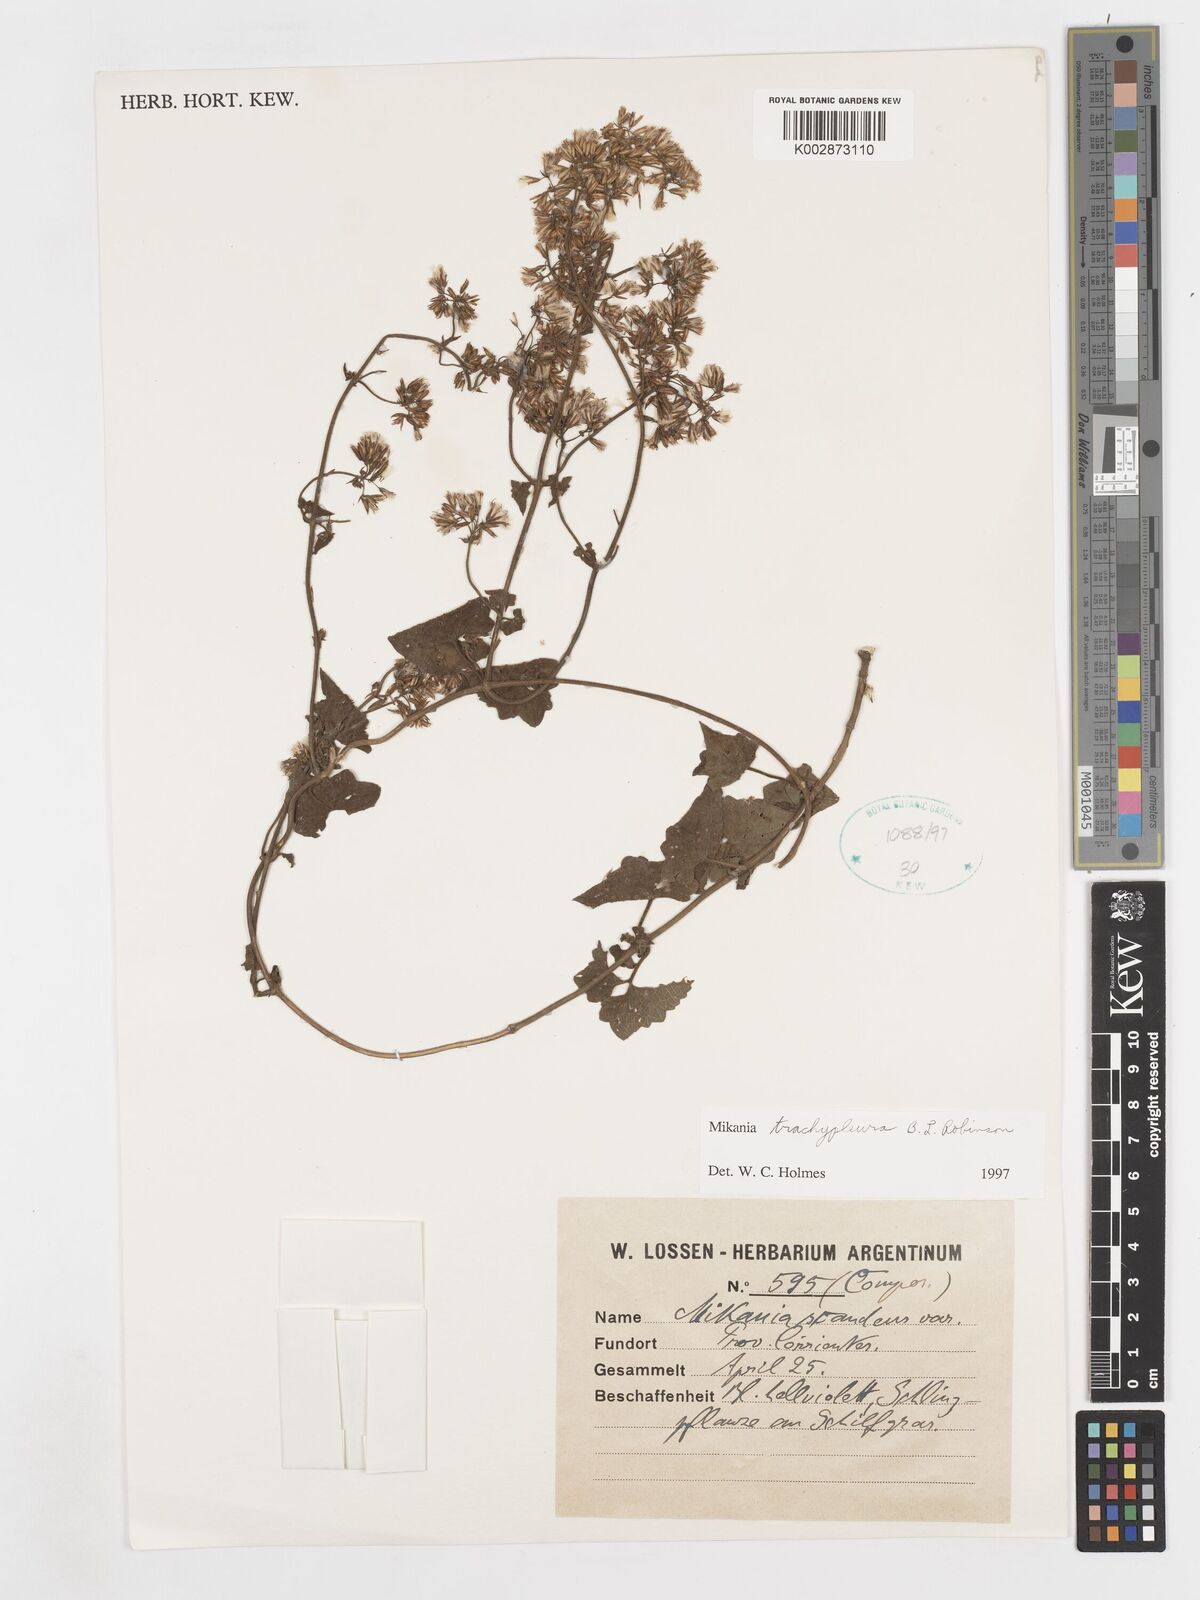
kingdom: Plantae
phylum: Tracheophyta
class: Magnoliopsida
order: Asterales
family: Asteraceae
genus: Mikania
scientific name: Mikania trachypleura
